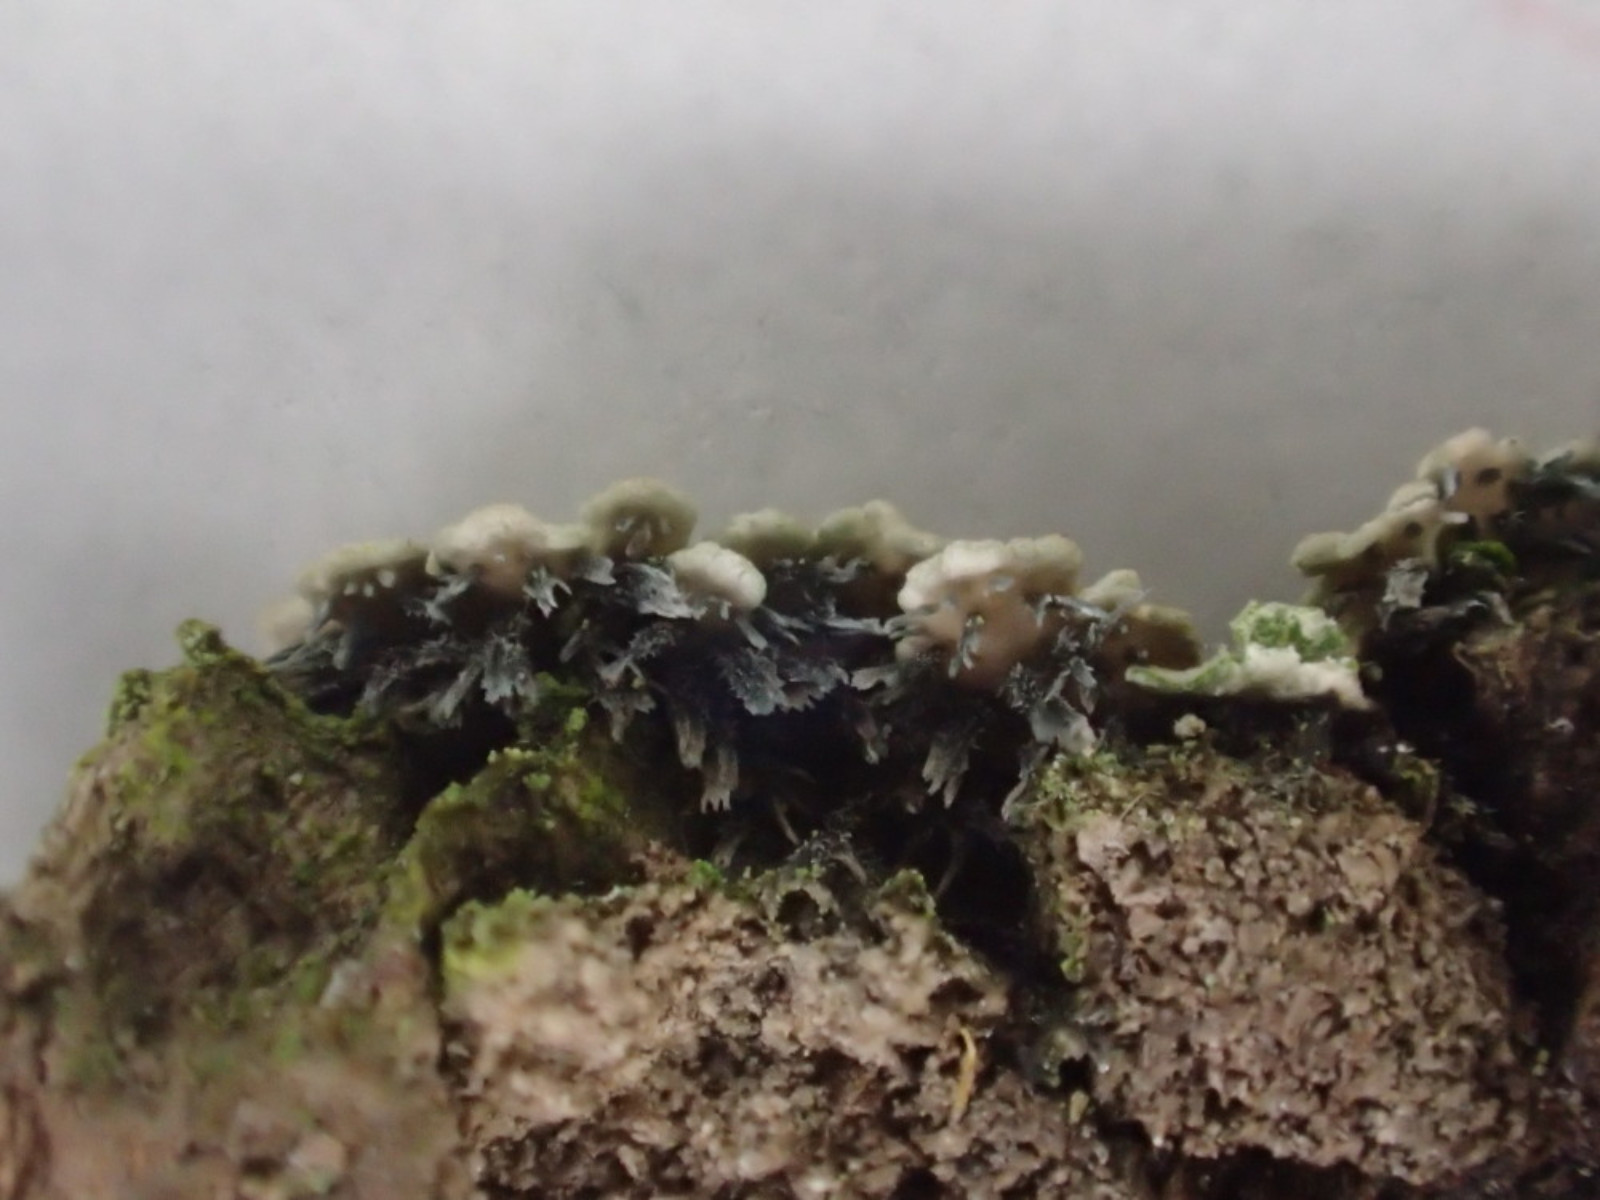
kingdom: Fungi
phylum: Ascomycota
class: Lecanoromycetes
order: Caliciales
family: Physciaceae
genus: Physconia
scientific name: Physconia perisidiosa
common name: liden dugrosetlav
